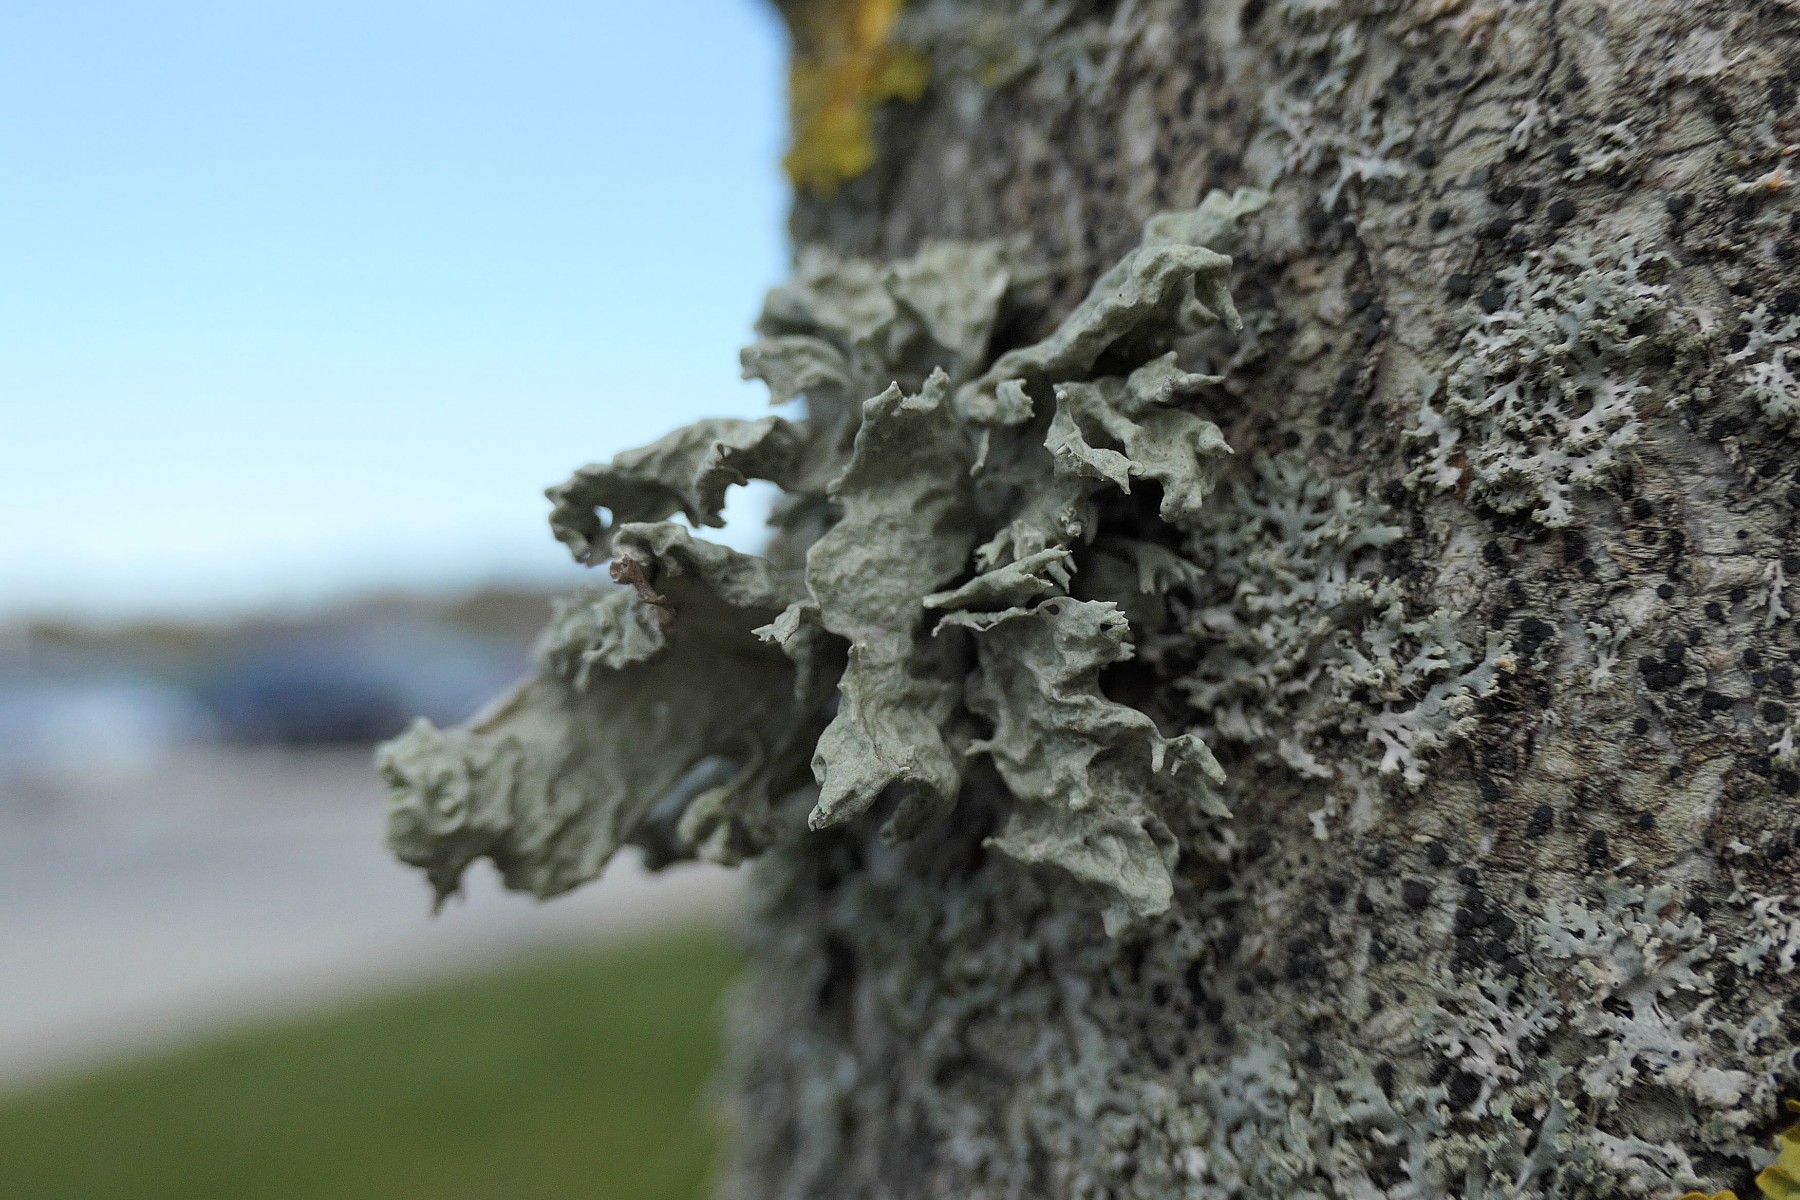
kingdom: Fungi
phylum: Ascomycota
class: Lecanoromycetes
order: Lecanorales
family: Ramalinaceae
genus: Ramalina
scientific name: Ramalina fraxinea
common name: stor grenlav
